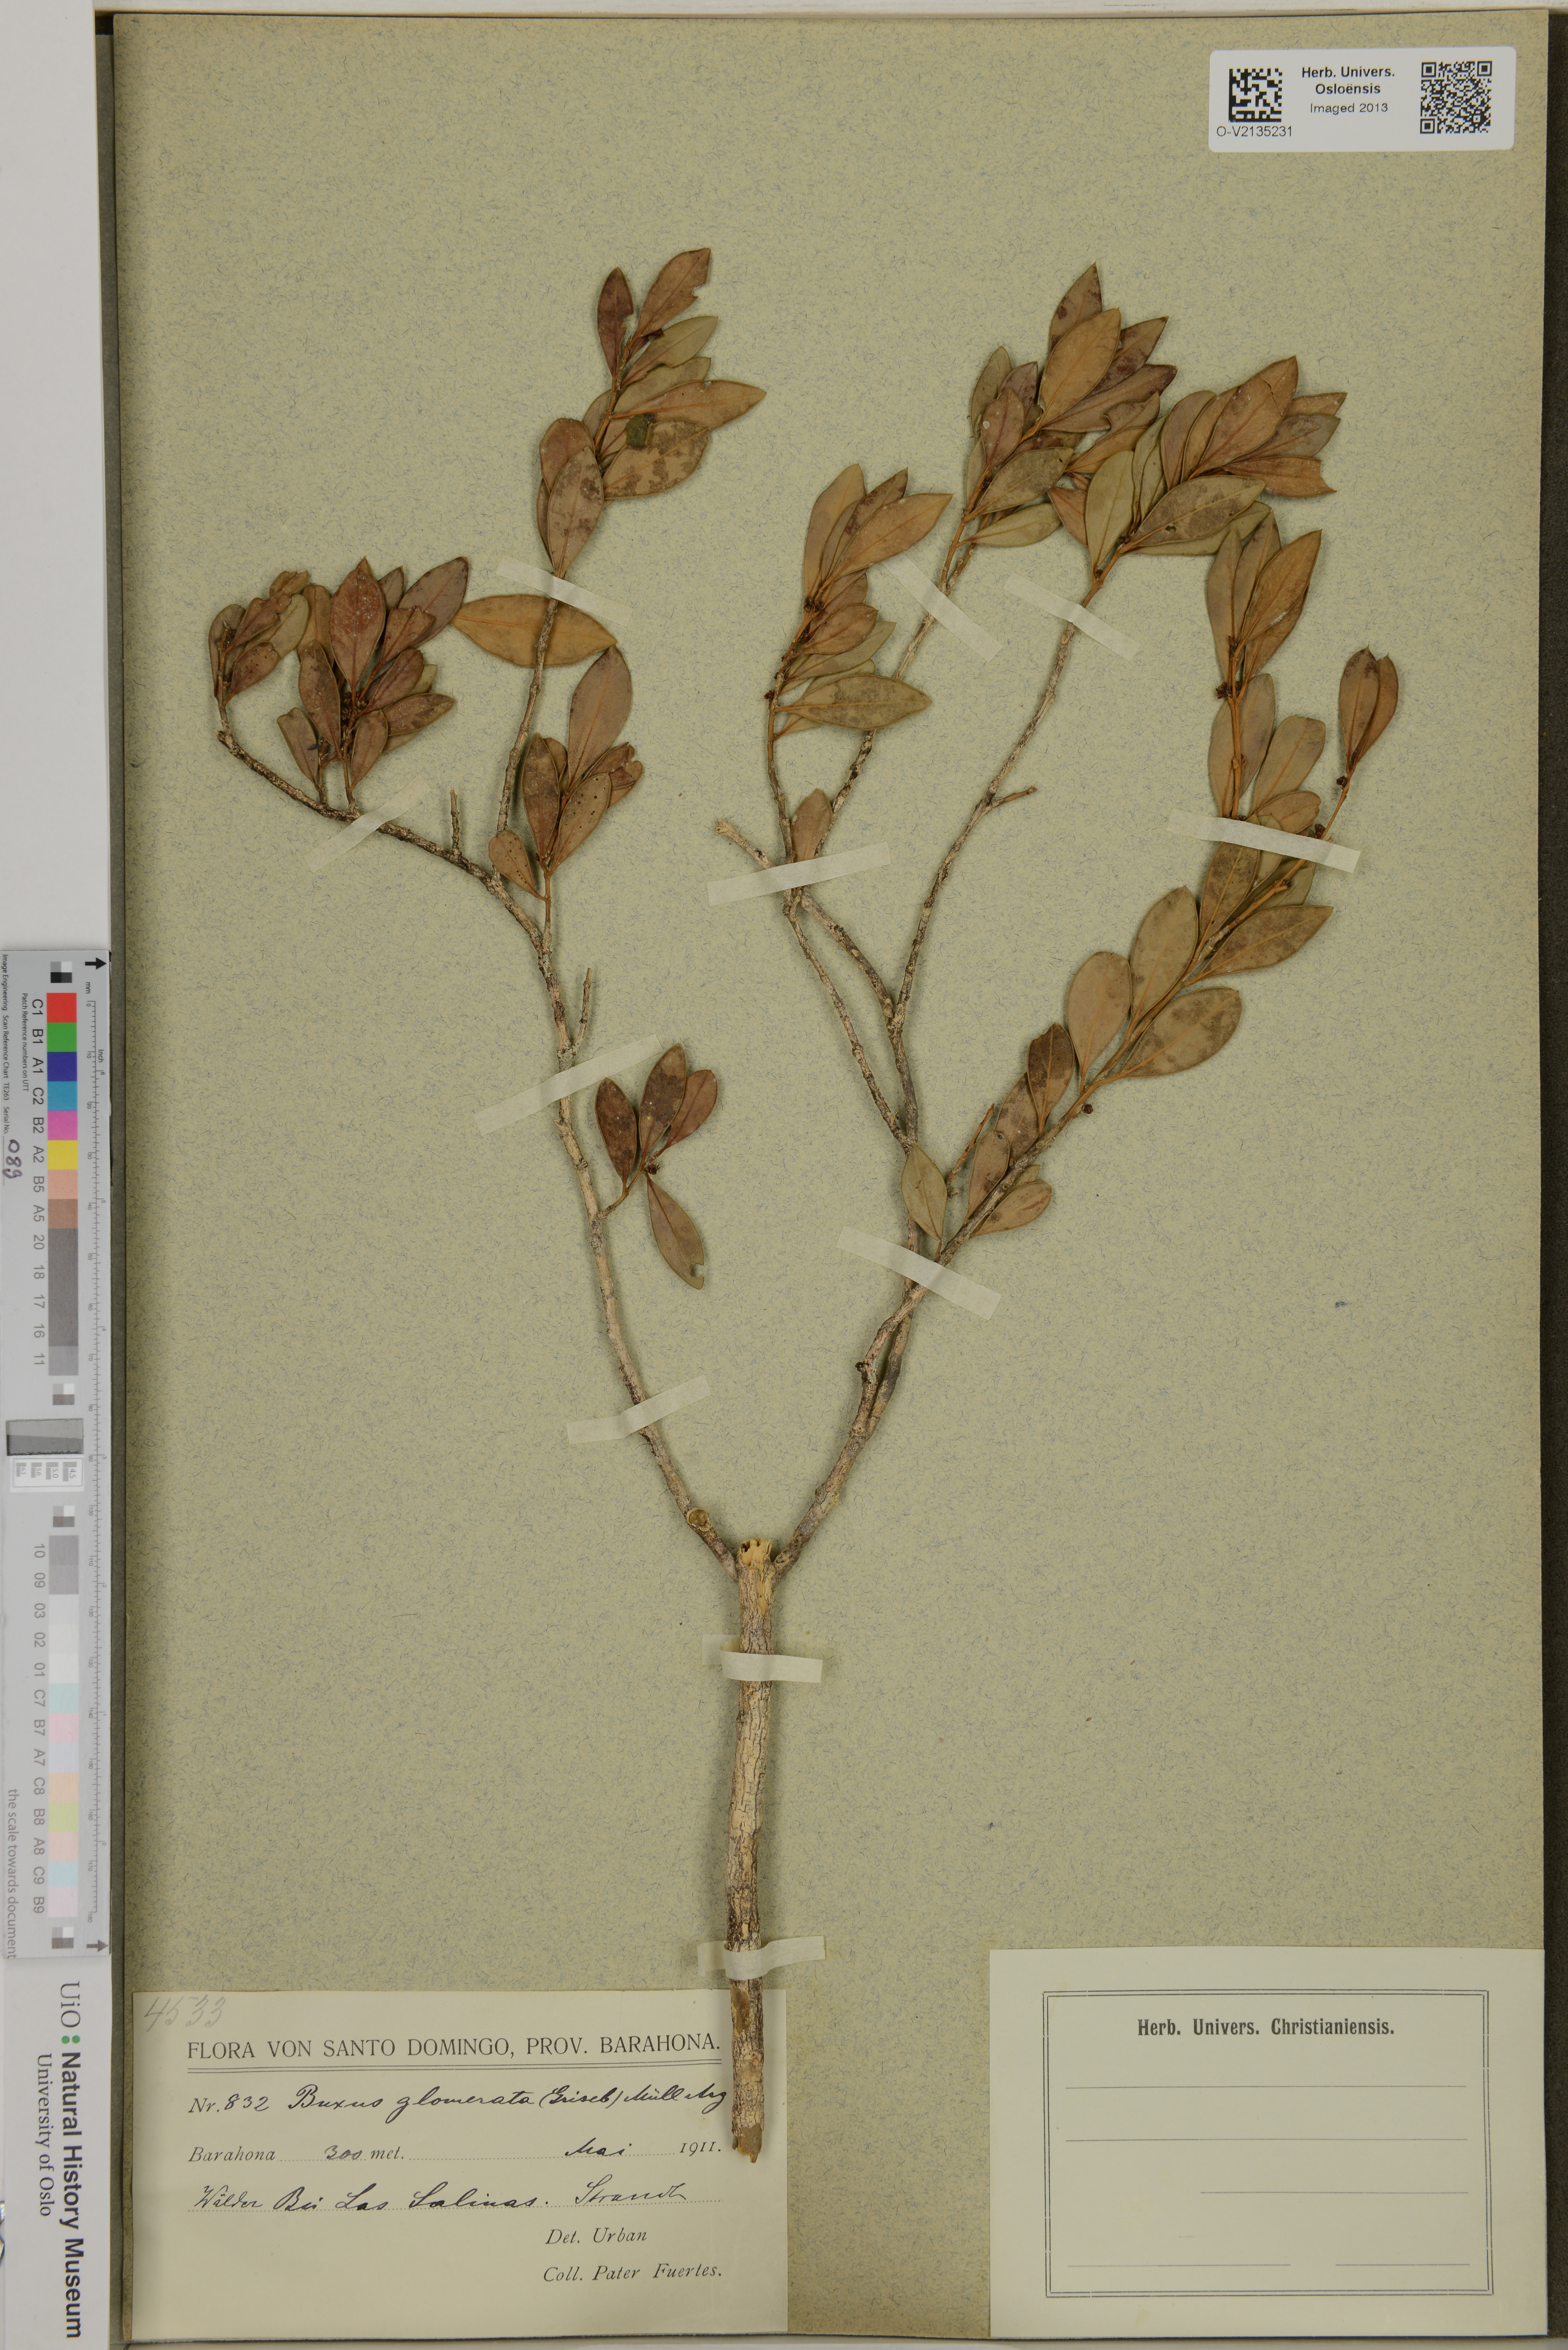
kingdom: Plantae
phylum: Tracheophyta
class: Magnoliopsida
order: Buxales
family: Buxaceae
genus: Buxus
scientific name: Buxus glomerata
